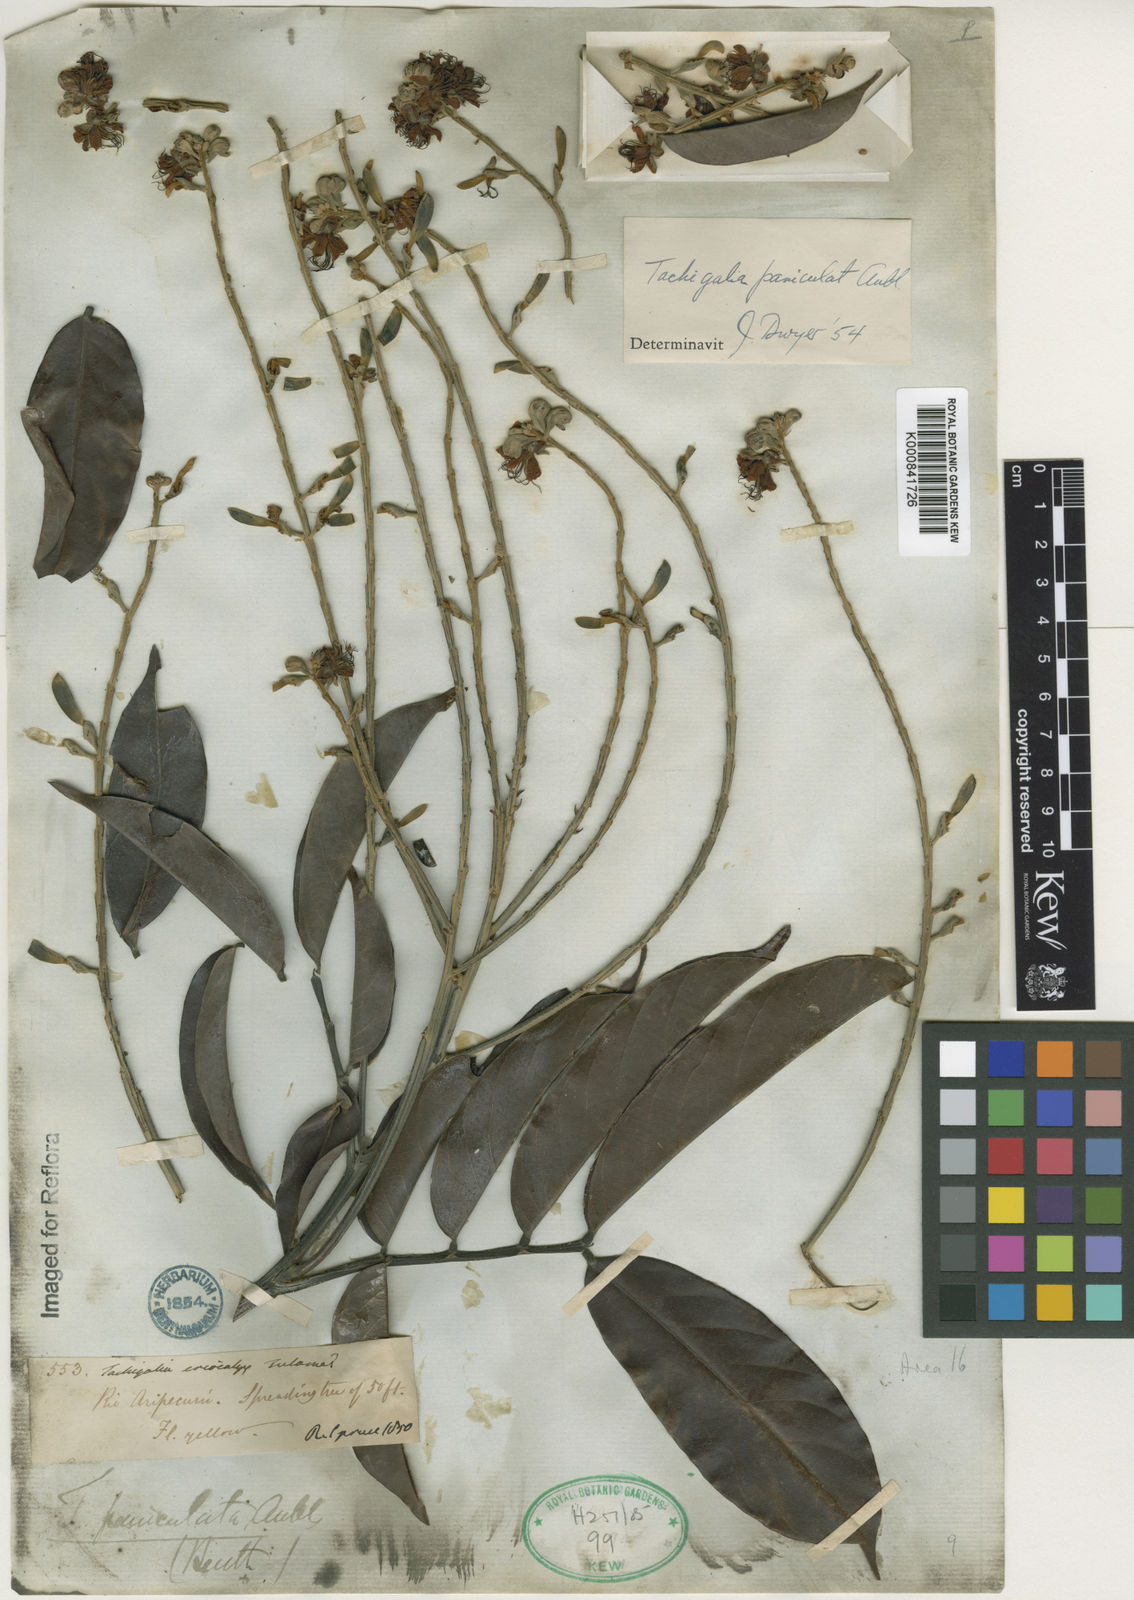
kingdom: Plantae
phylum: Tracheophyta
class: Magnoliopsida
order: Fabales
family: Fabaceae
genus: Tachigali
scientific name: Tachigali paniculata
